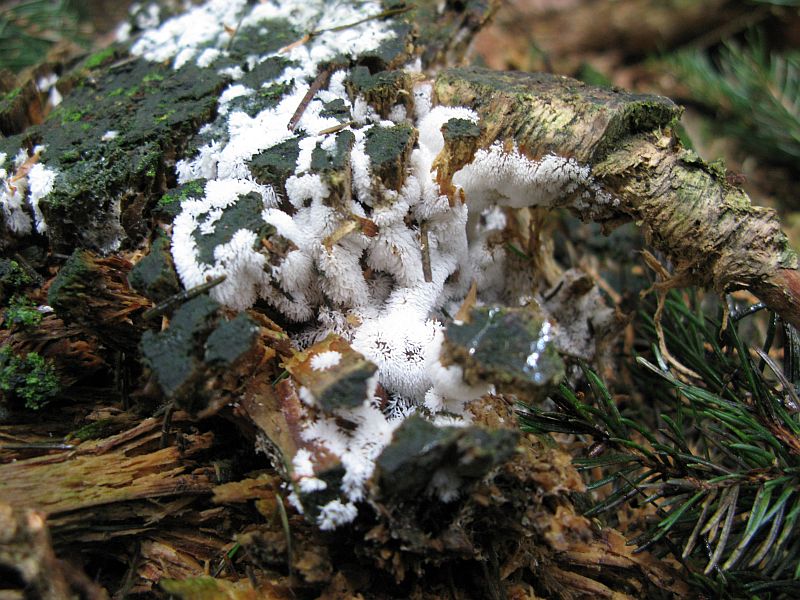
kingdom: Protozoa
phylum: Mycetozoa
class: Protosteliomycetes
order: Ceratiomyxales
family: Ceratiomyxaceae
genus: Ceratiomyxa
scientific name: Ceratiomyxa fruticulosa
